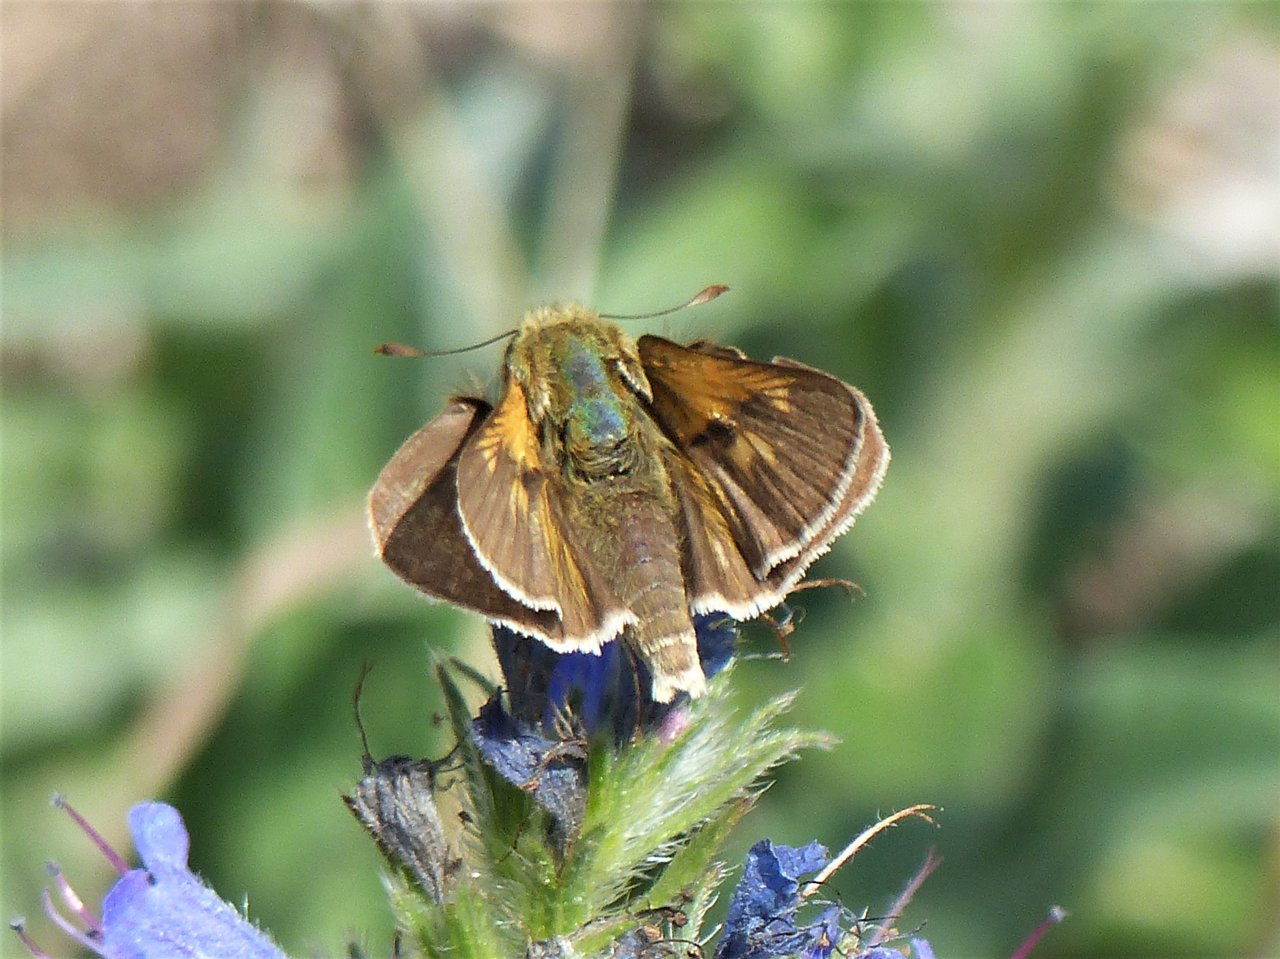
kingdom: Animalia
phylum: Arthropoda
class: Insecta
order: Lepidoptera
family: Hesperiidae
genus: Polites
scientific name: Polites
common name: Crossline Skipper
